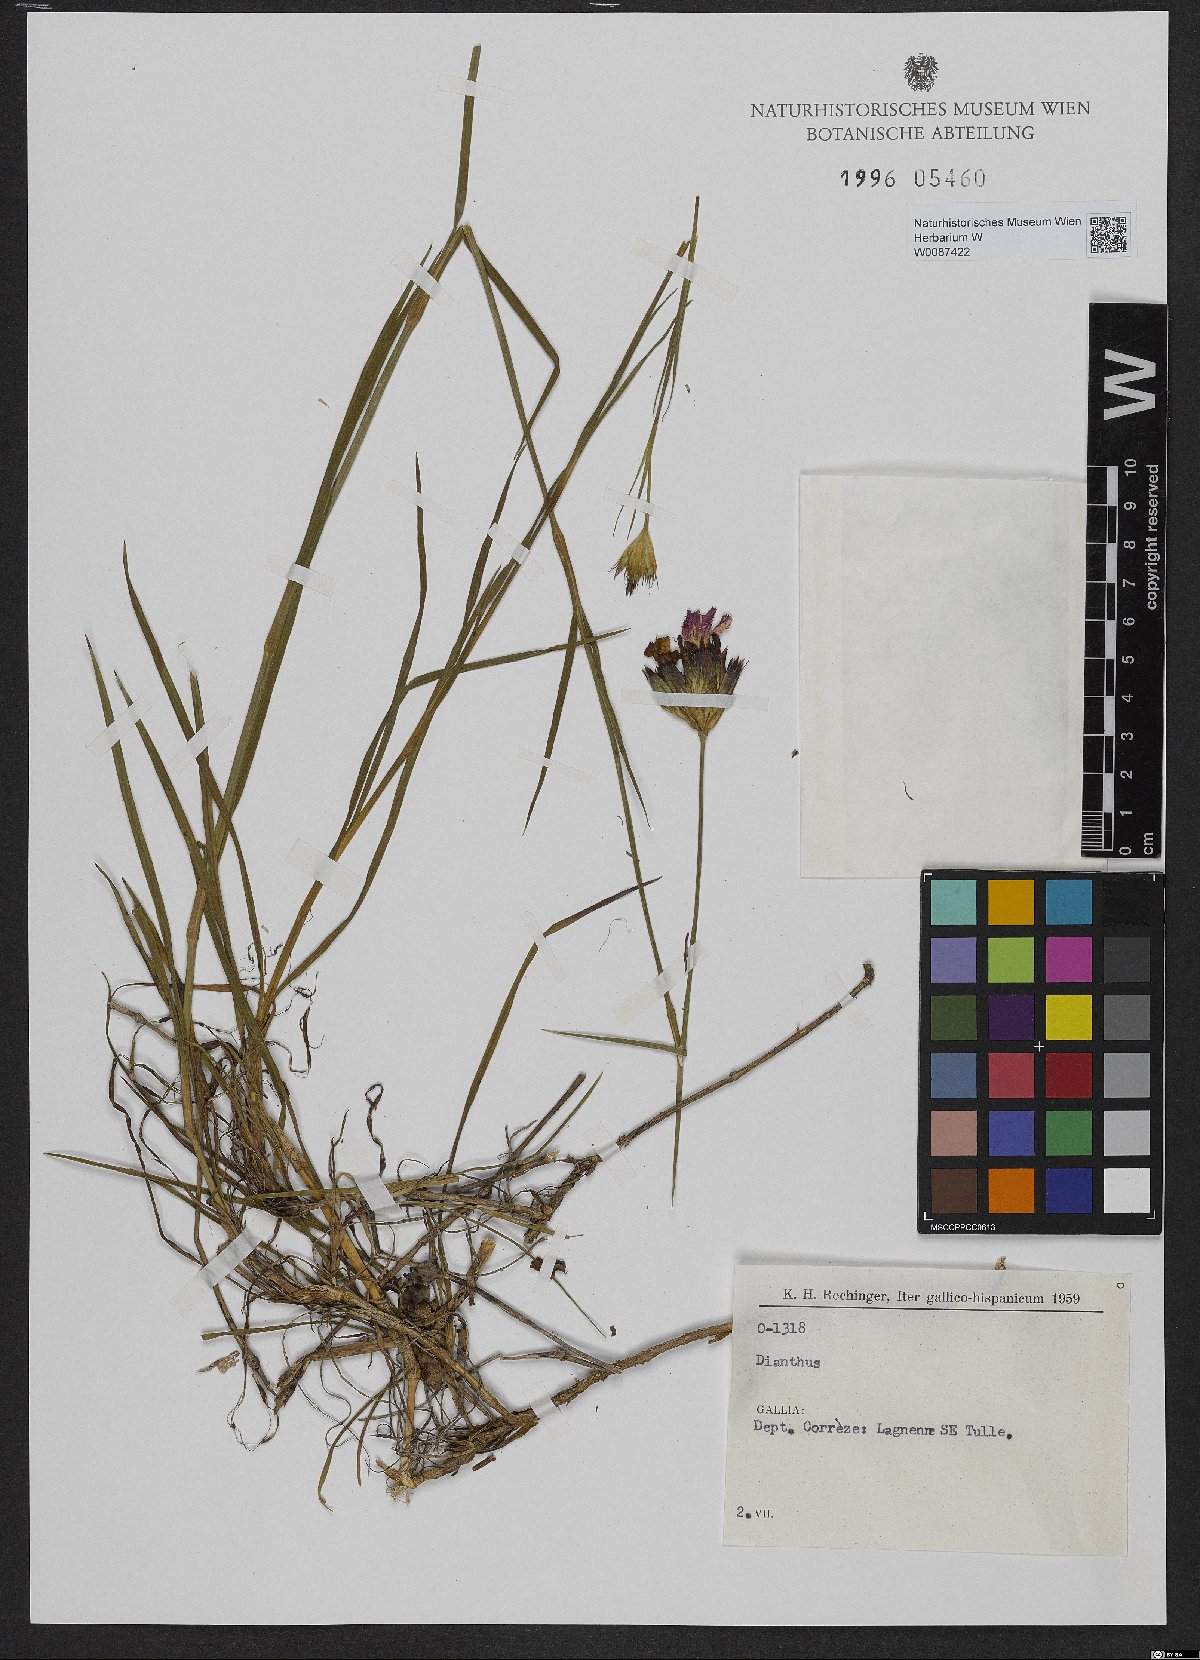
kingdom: Plantae
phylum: Tracheophyta
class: Magnoliopsida
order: Caryophyllales
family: Caryophyllaceae
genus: Dianthus
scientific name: Dianthus
